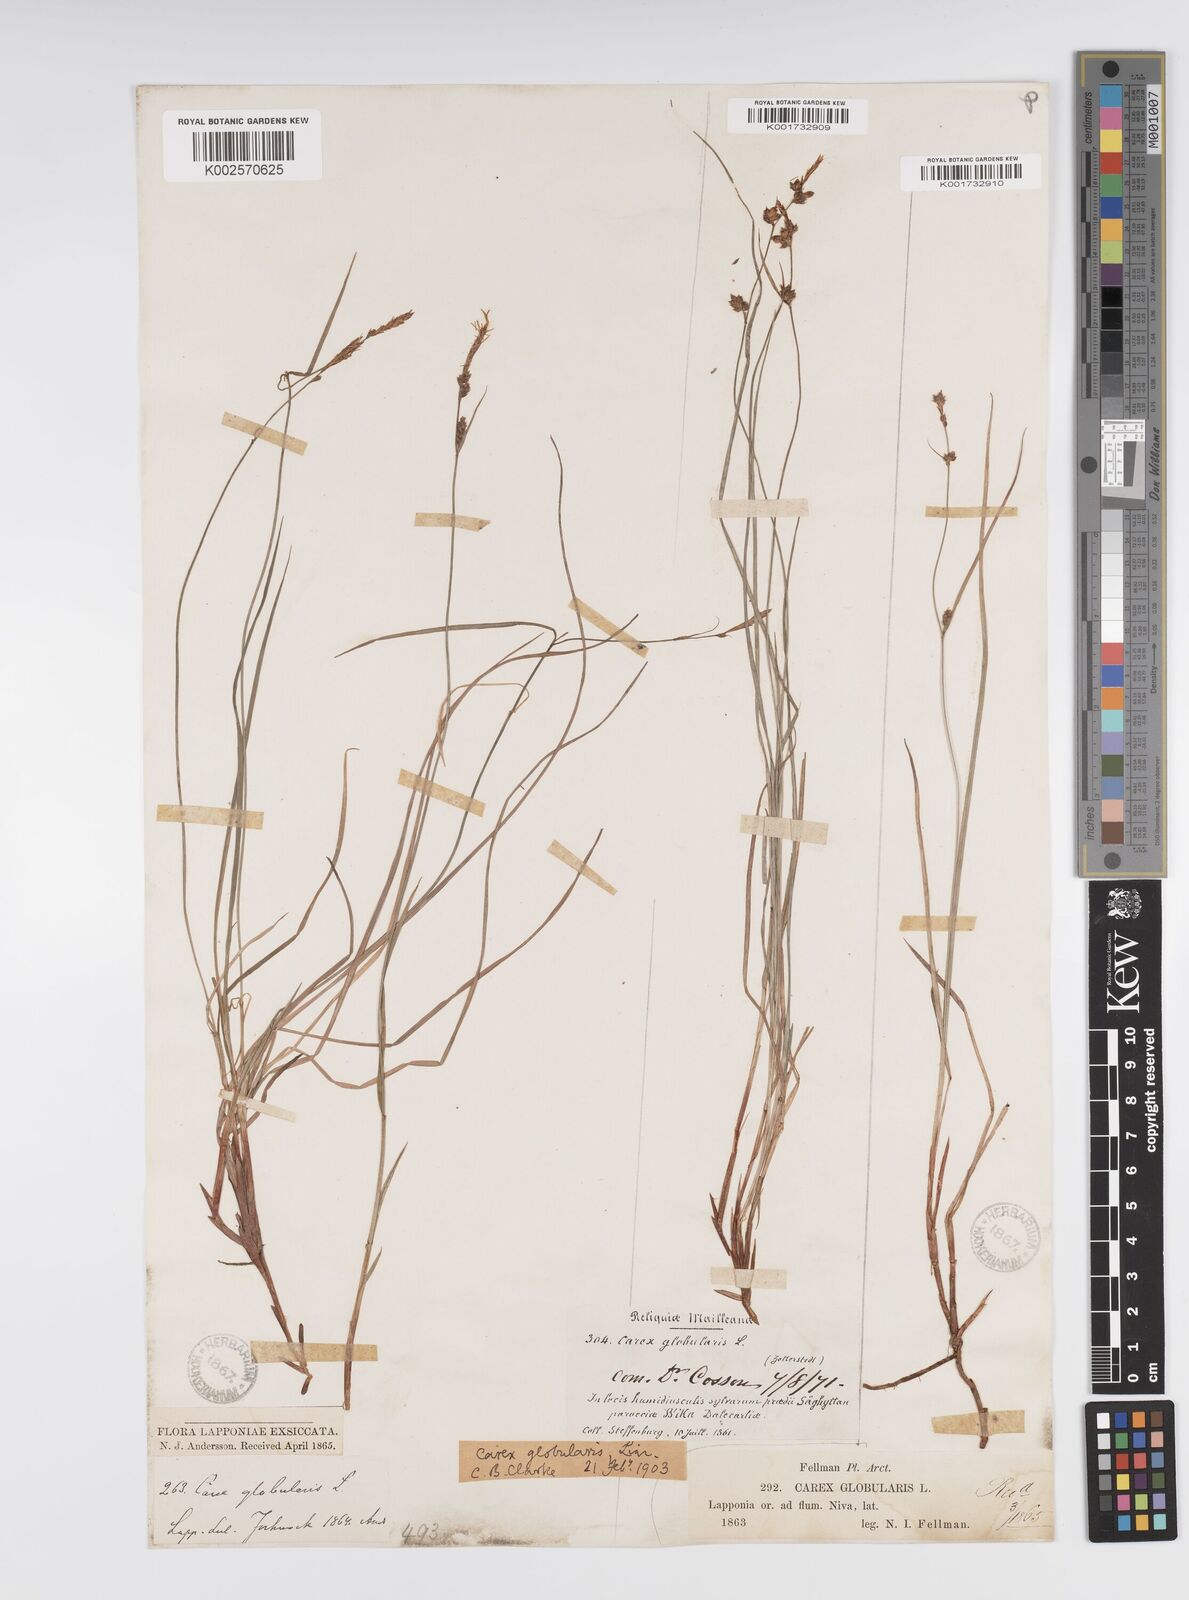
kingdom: Plantae
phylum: Tracheophyta
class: Liliopsida
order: Poales
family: Cyperaceae
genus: Carex
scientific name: Carex globularis
